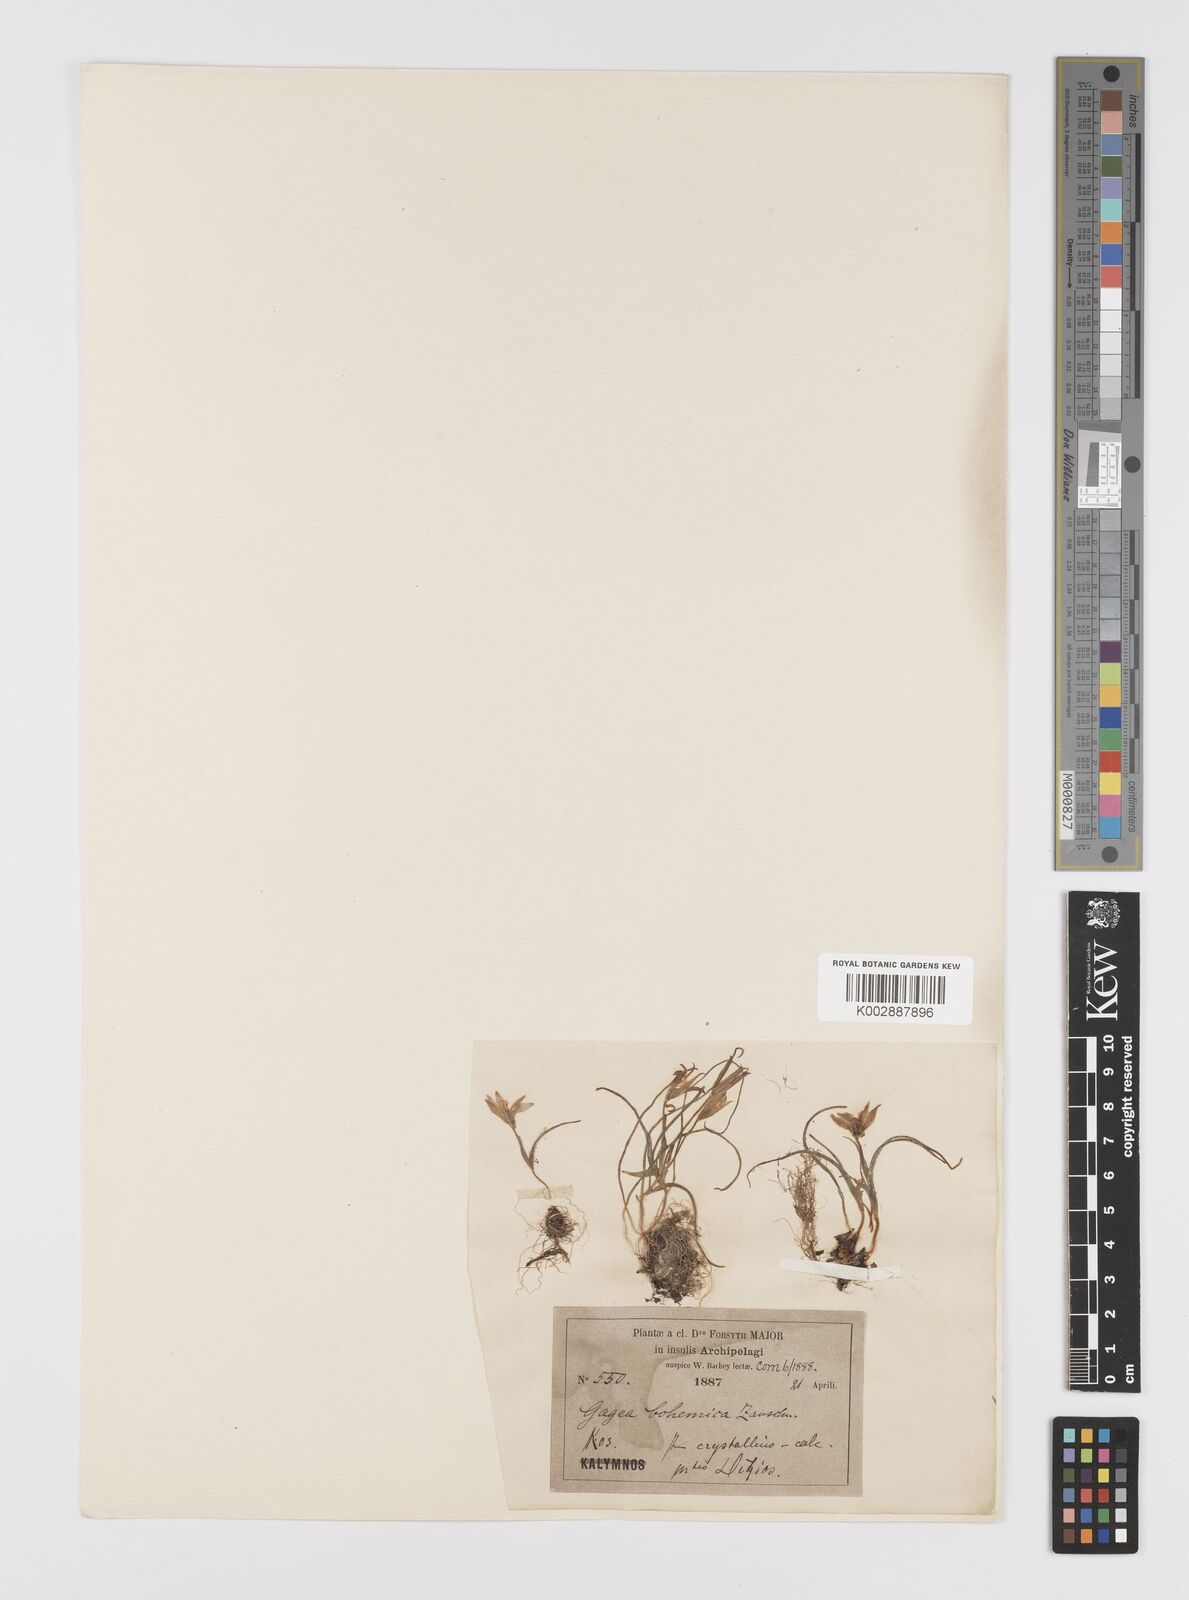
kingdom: Plantae
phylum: Tracheophyta
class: Liliopsida
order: Liliales
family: Liliaceae
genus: Gagea
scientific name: Gagea peduncularis
